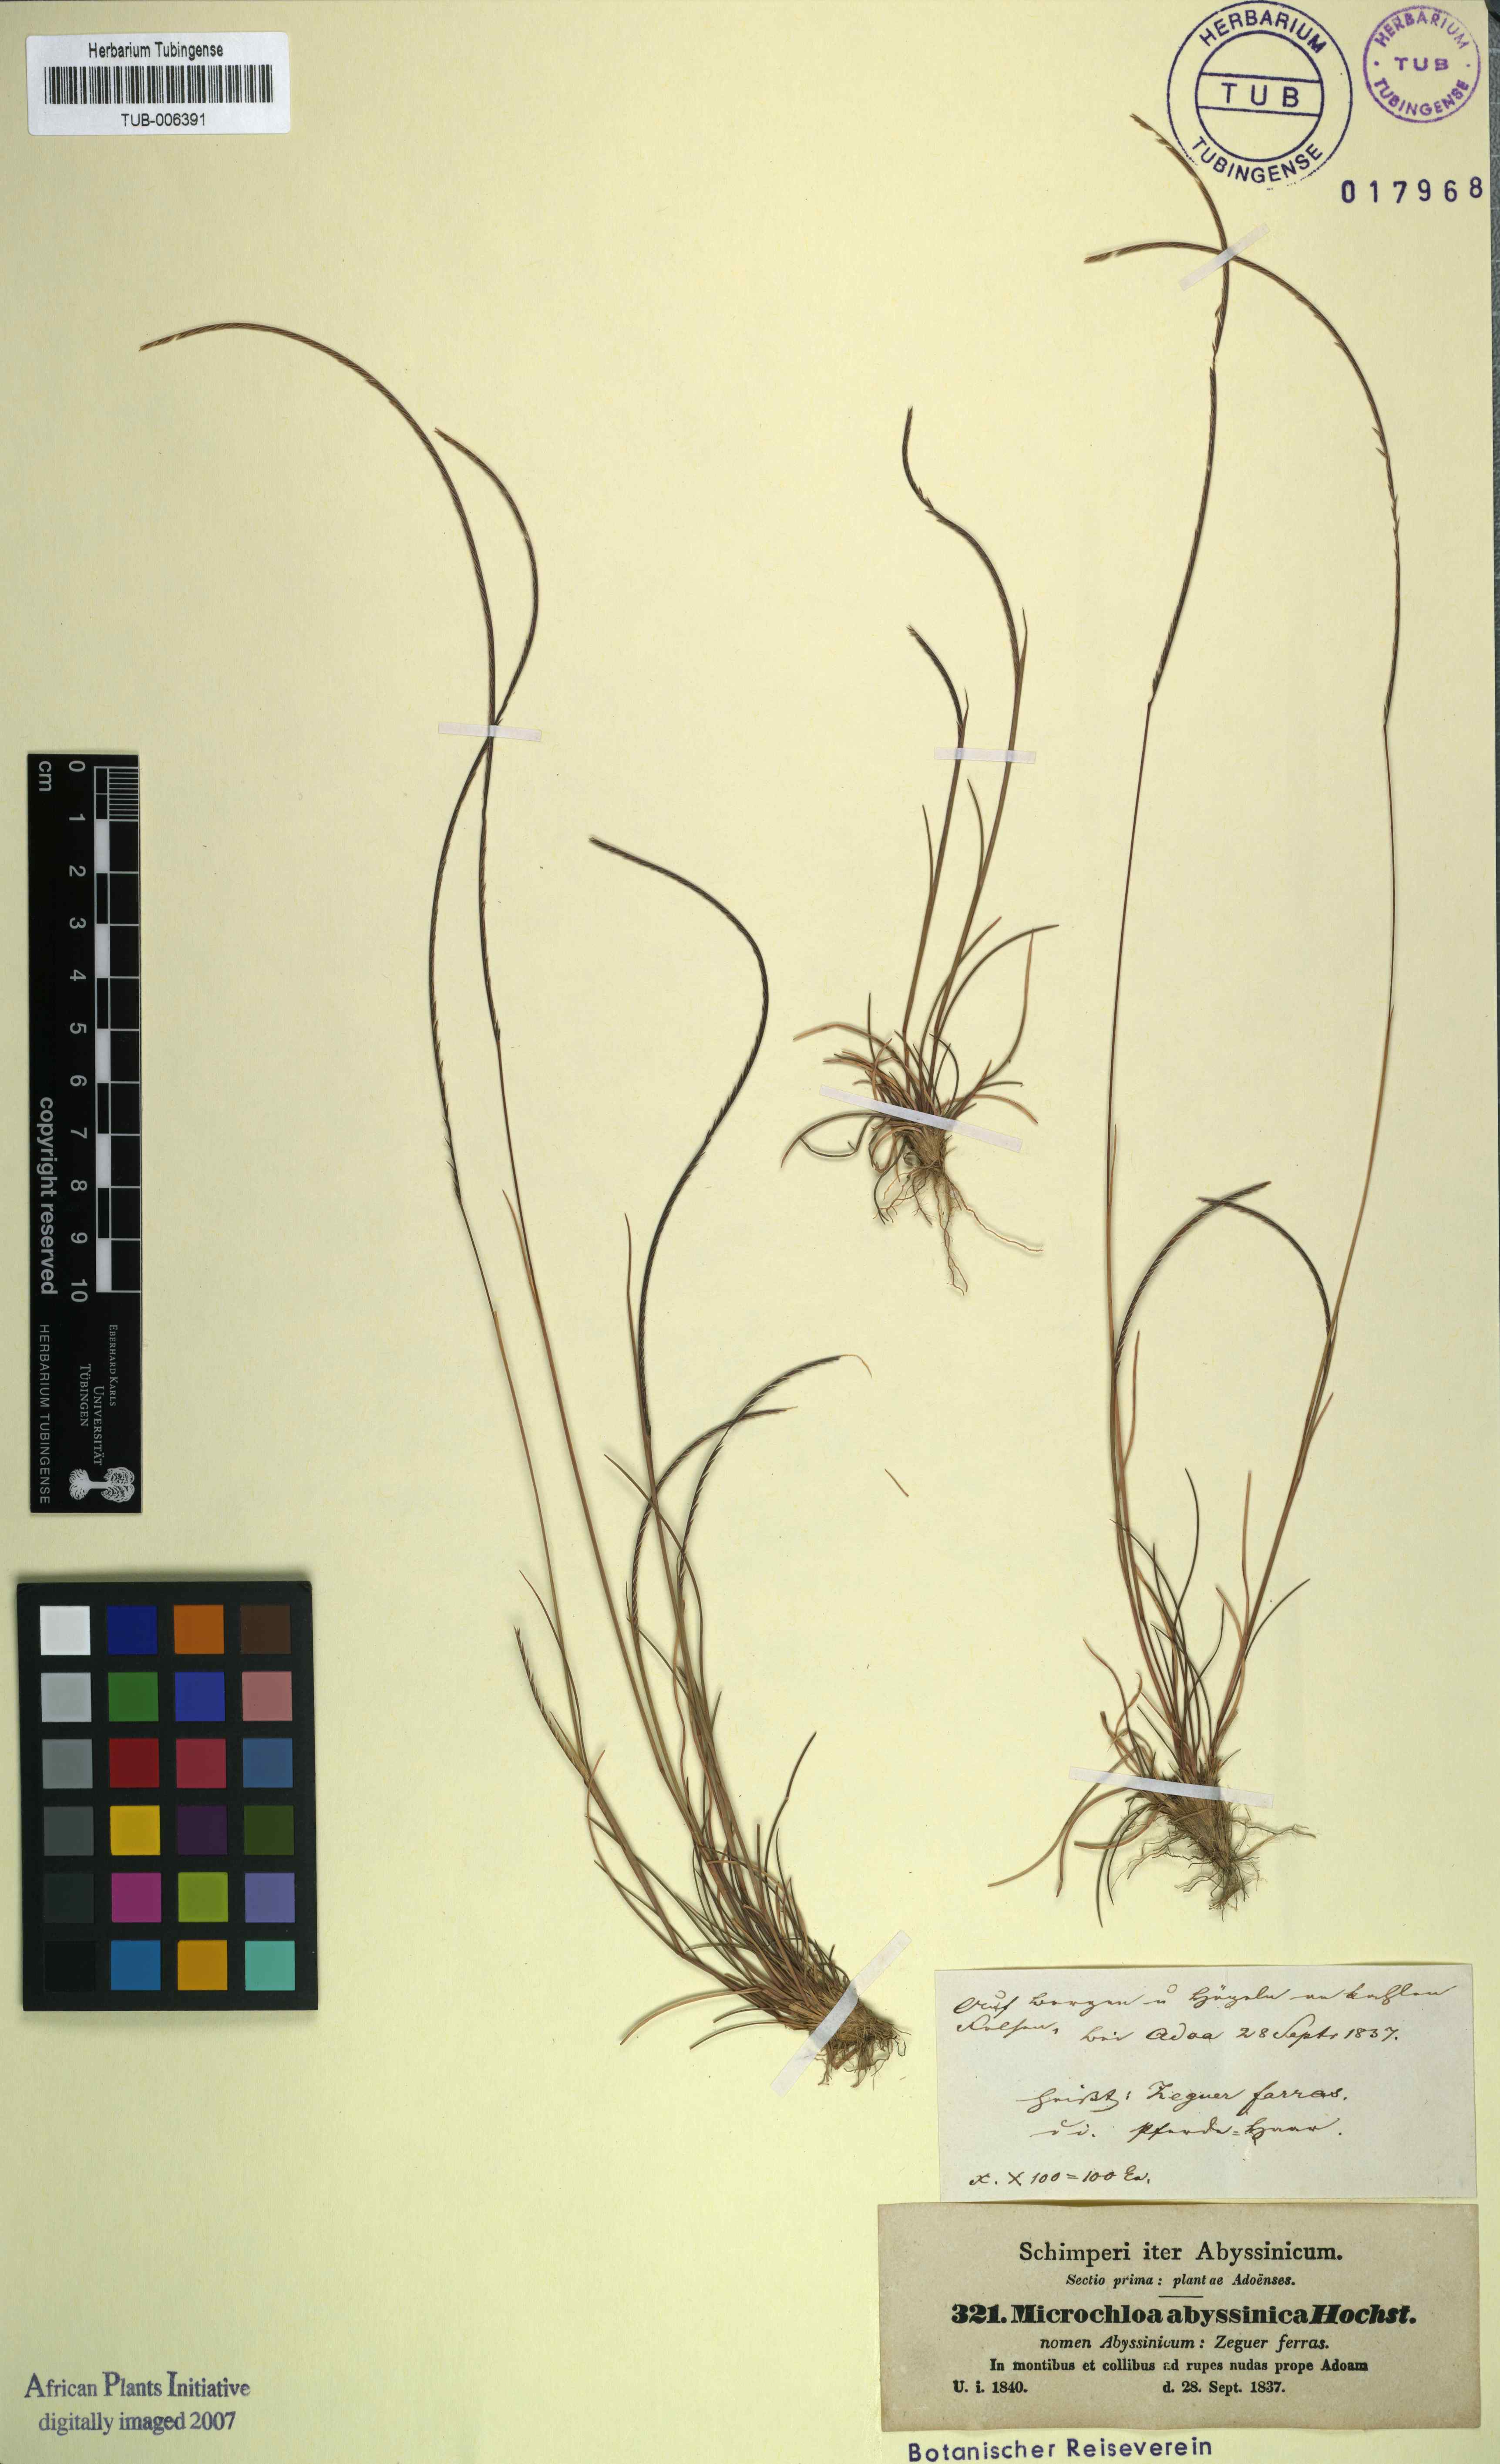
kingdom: Plantae
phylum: Tracheophyta
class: Liliopsida
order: Poales
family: Poaceae
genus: Microchloa
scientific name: Microchloa kunthii
